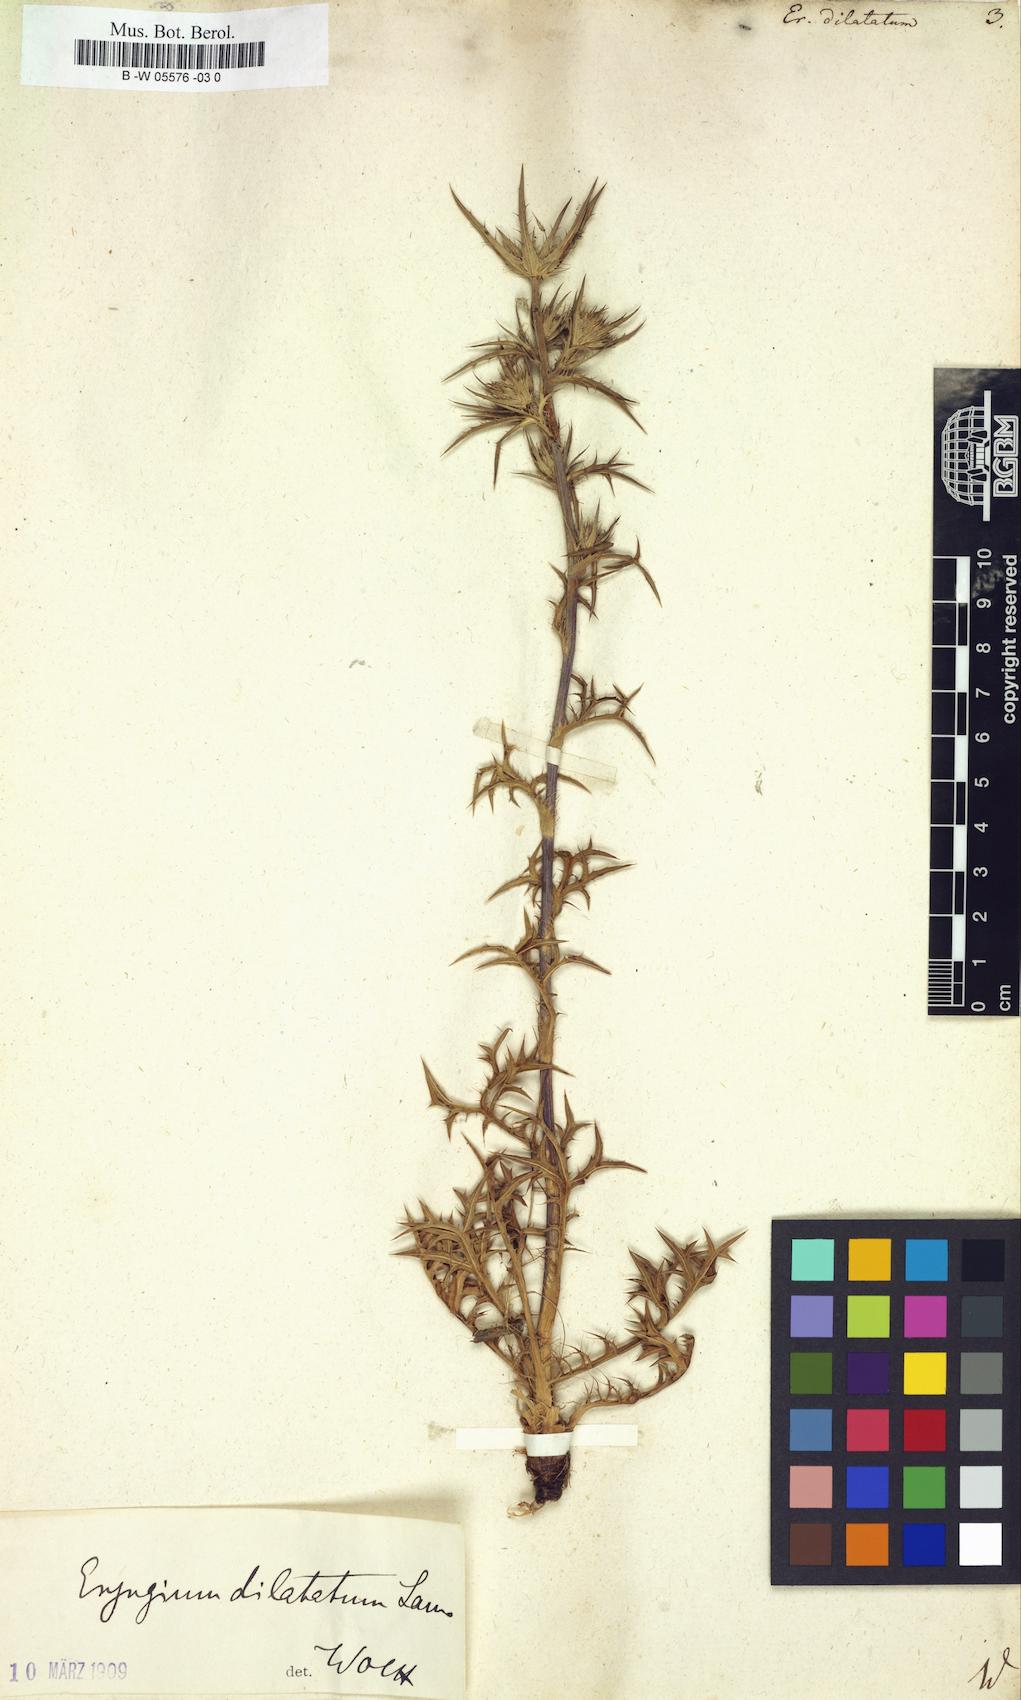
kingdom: Plantae
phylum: Tracheophyta
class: Magnoliopsida
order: Apiales
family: Apiaceae
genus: Eryngium
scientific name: Eryngium dilatatum
